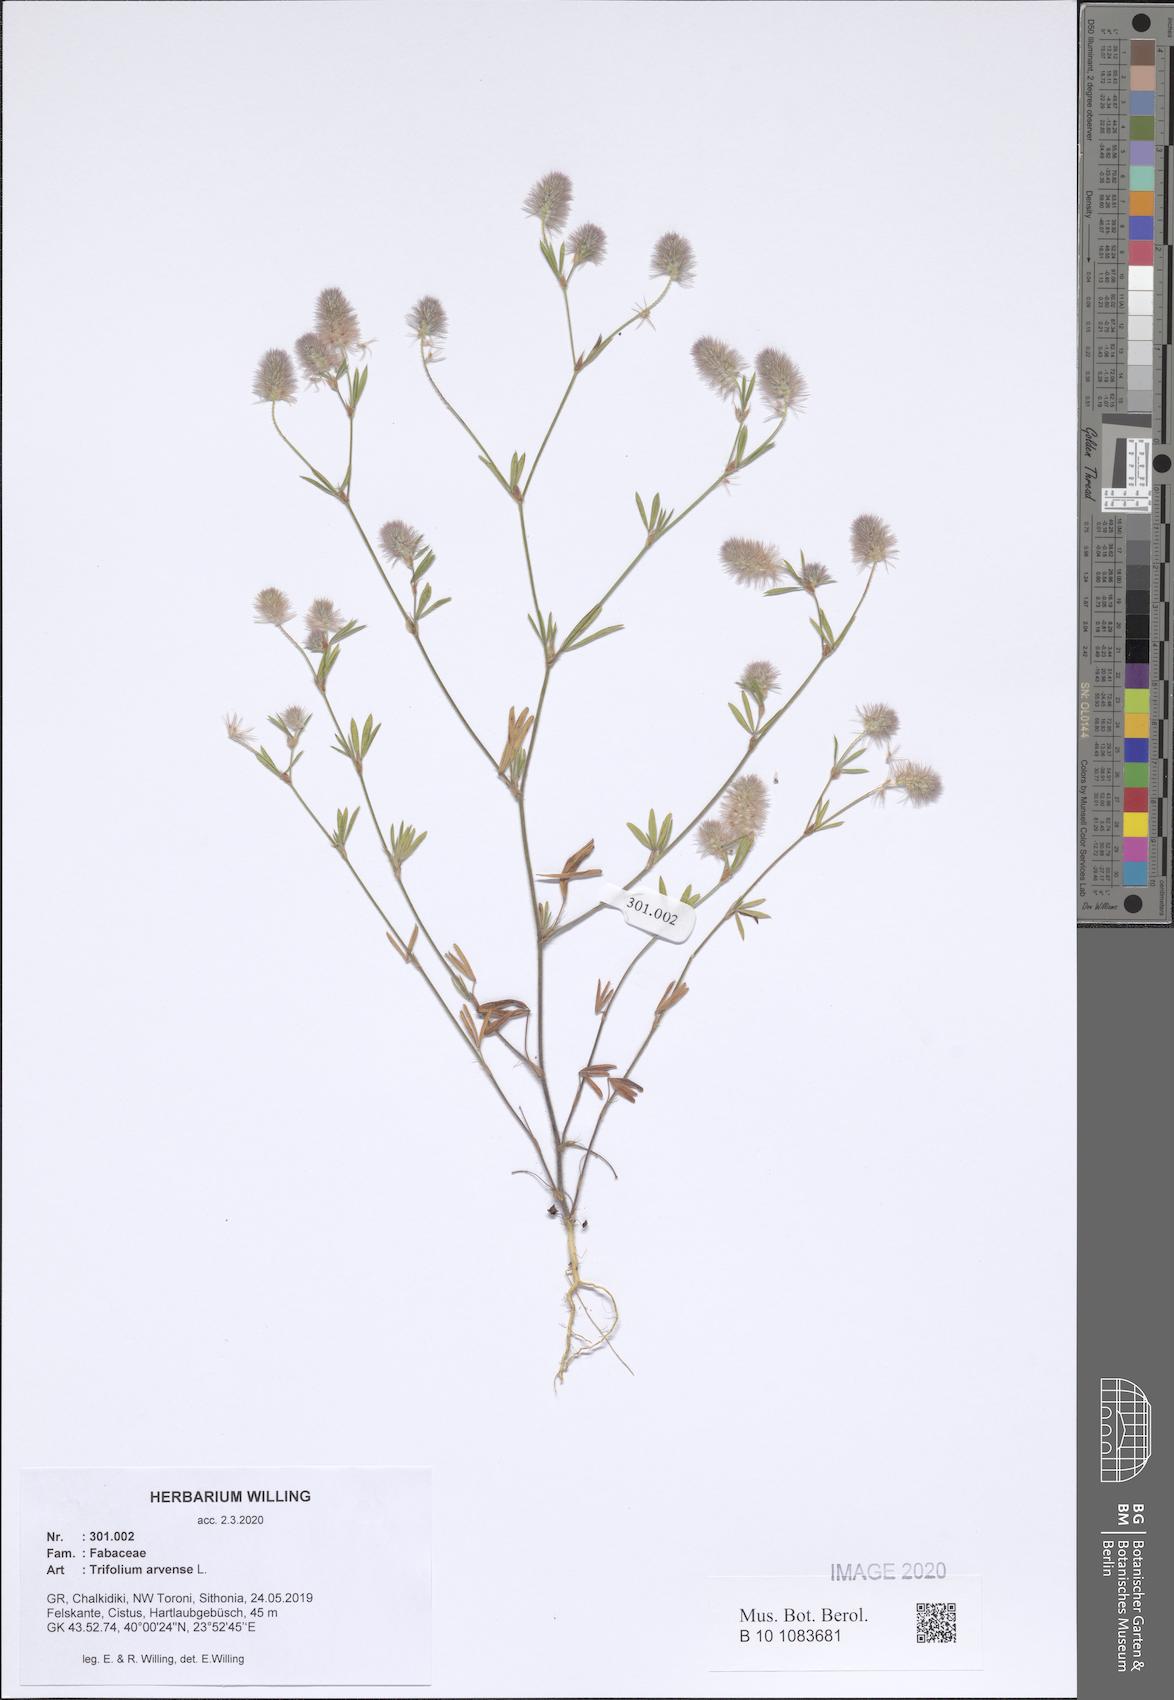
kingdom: Plantae
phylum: Tracheophyta
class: Magnoliopsida
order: Fabales
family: Fabaceae
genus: Trifolium
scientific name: Trifolium arvense
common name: Hare's-foot clover
